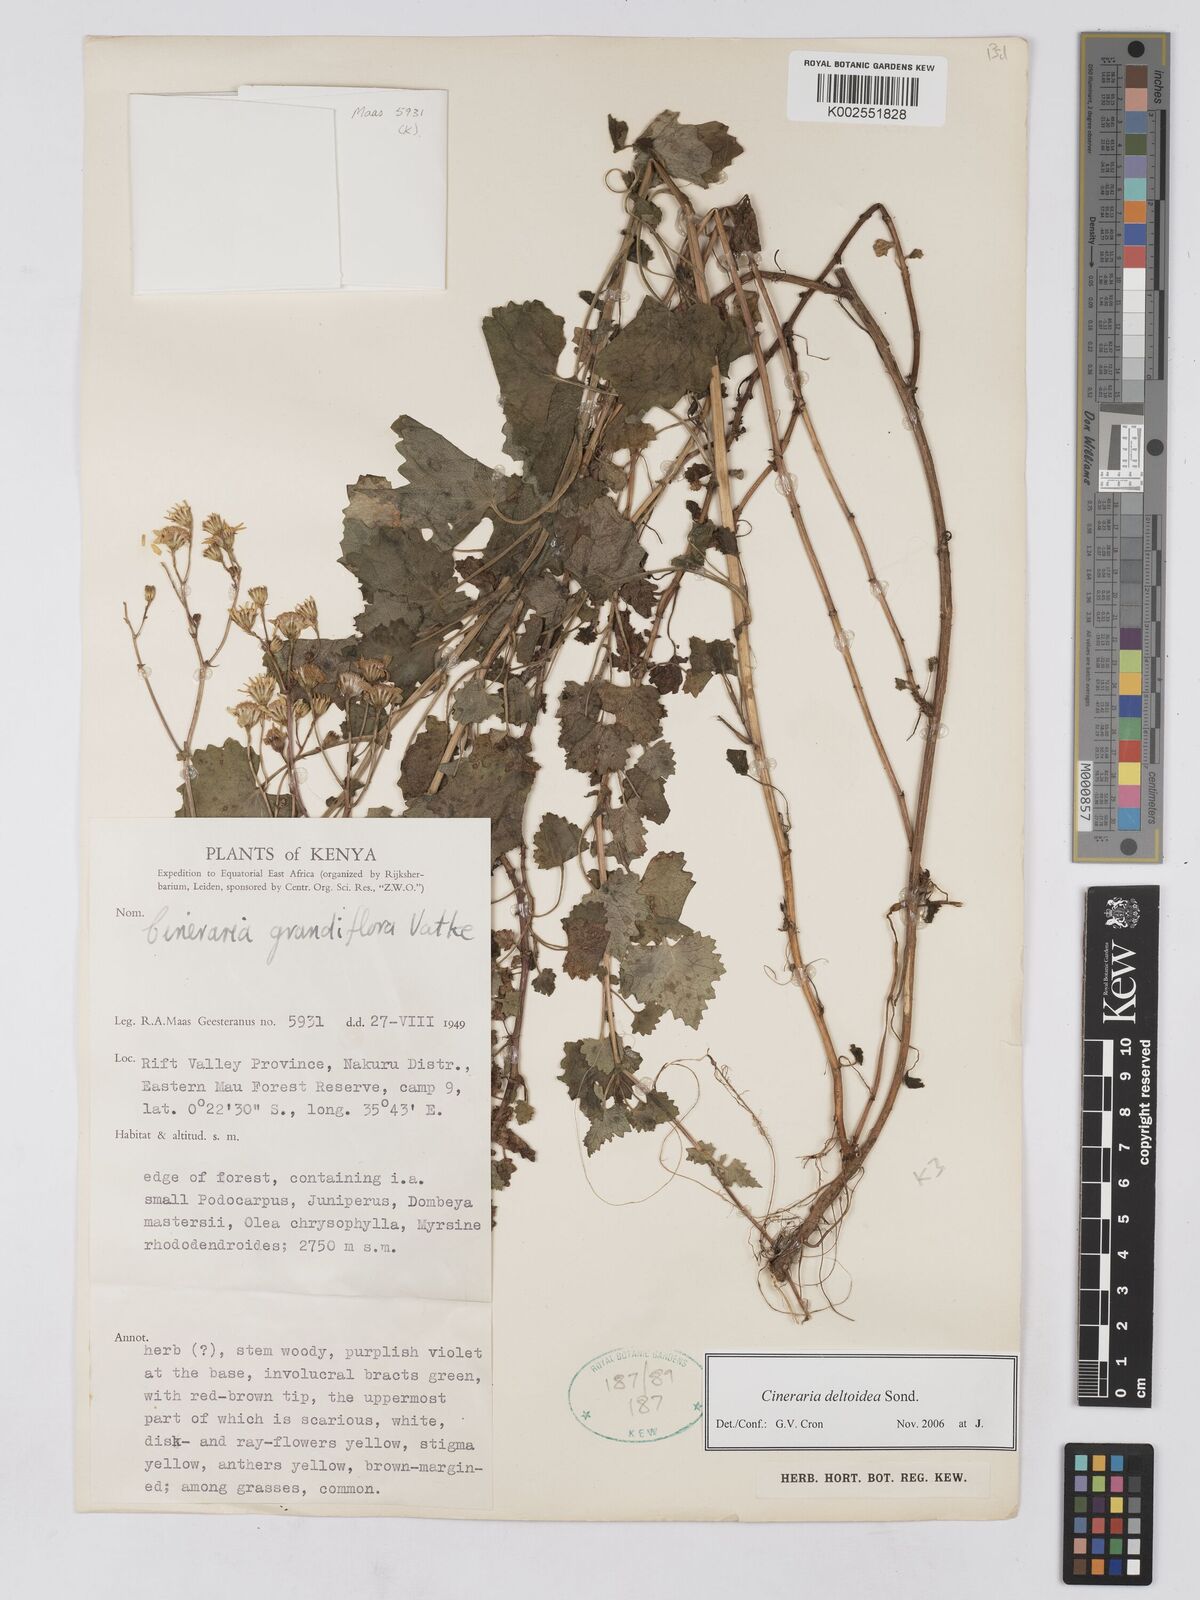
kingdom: Plantae
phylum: Tracheophyta
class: Magnoliopsida
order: Asterales
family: Asteraceae
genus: Cineraria
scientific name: Cineraria deltoidea
